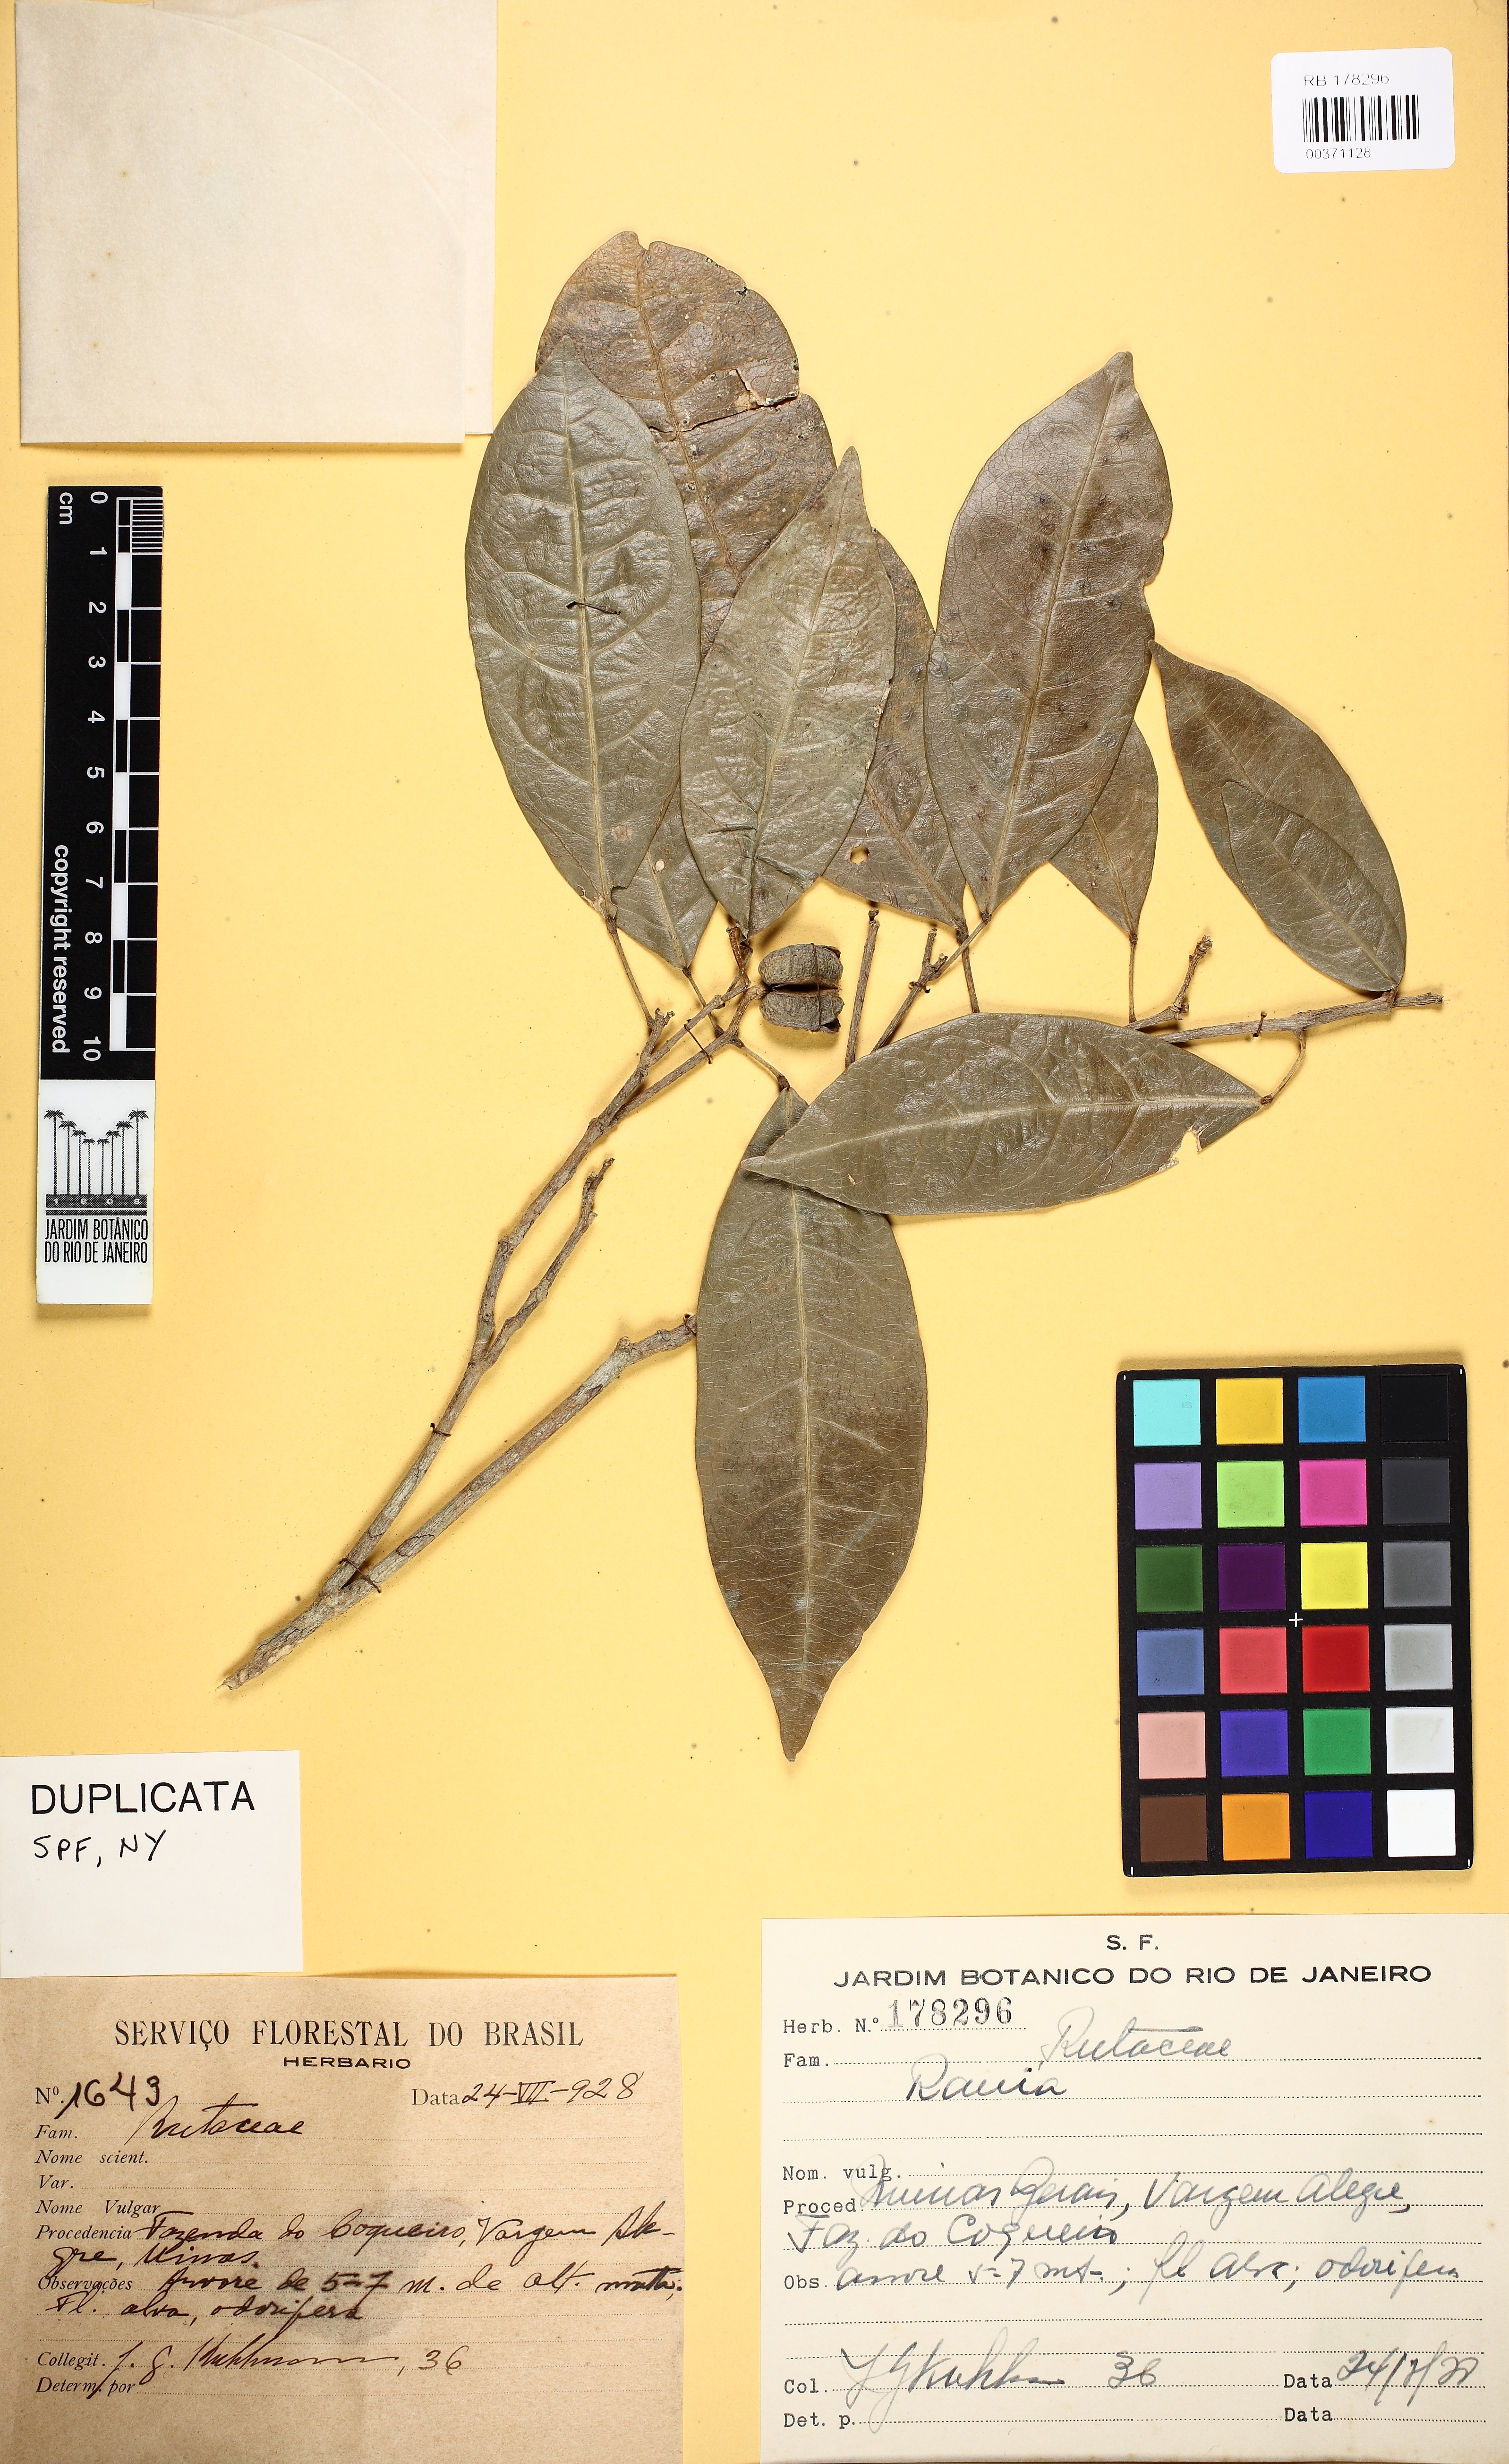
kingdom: Plantae
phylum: Tracheophyta
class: Magnoliopsida
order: Sapindales
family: Rutaceae
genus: Rauia
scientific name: Rauia
